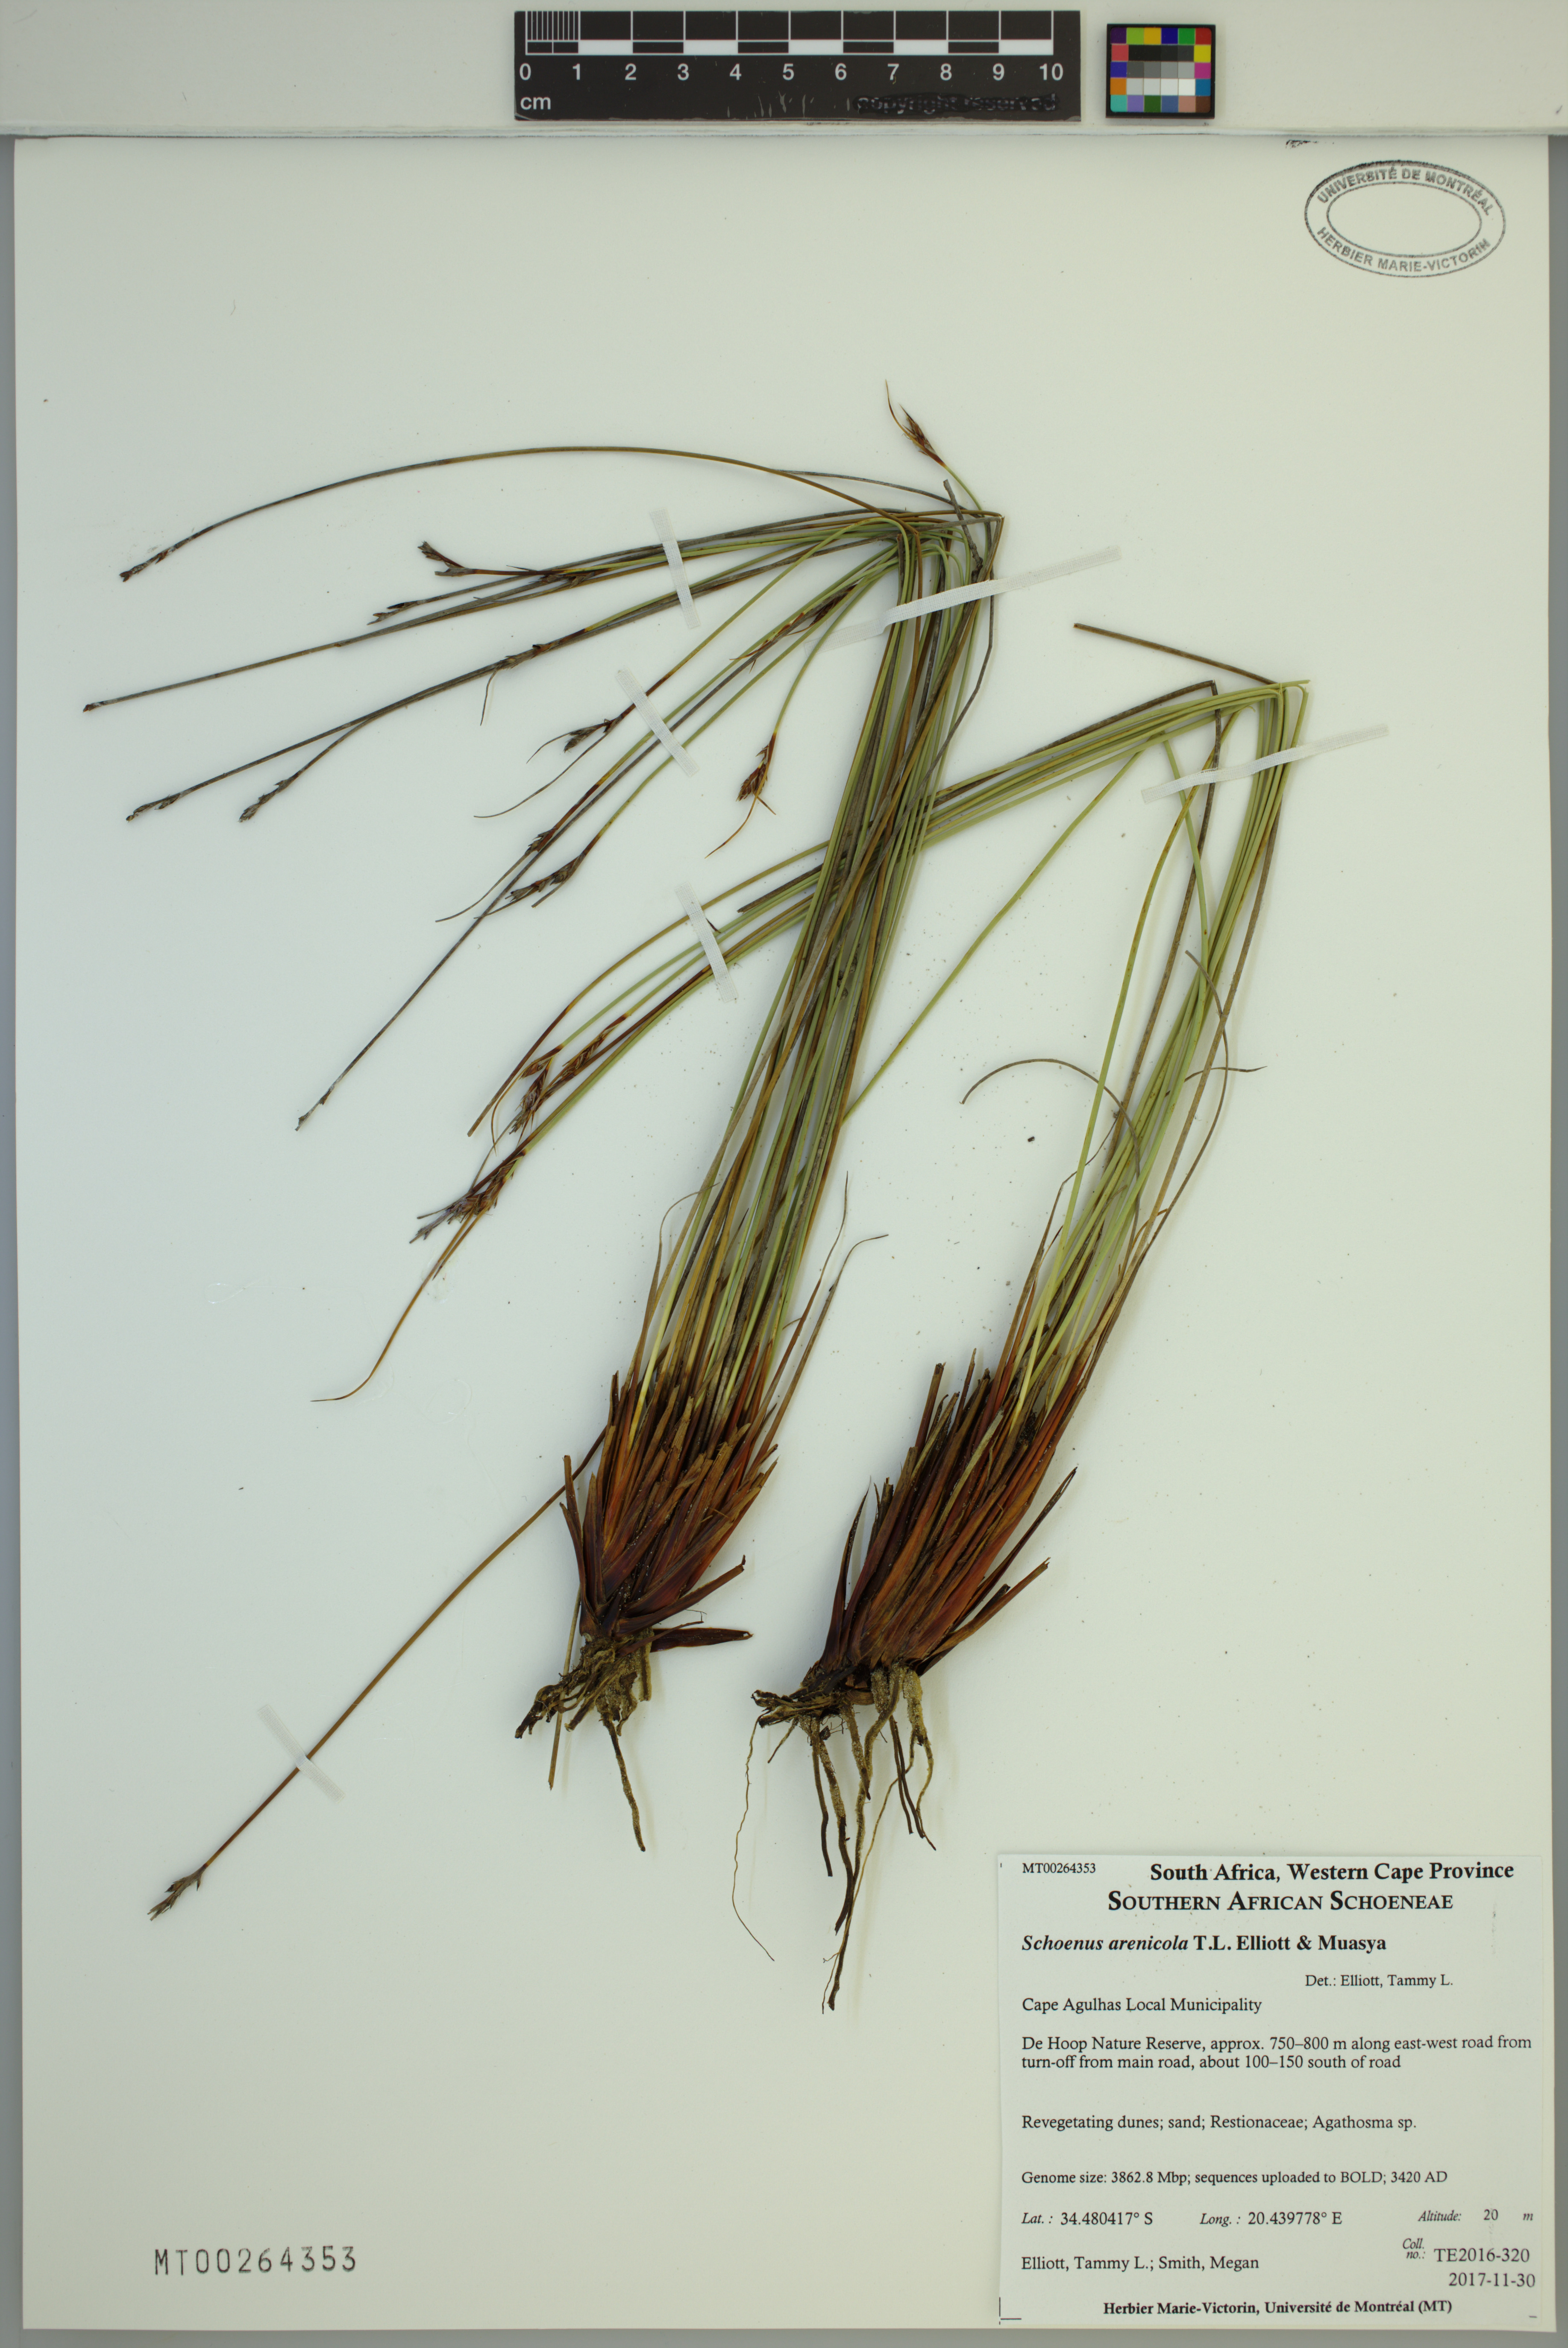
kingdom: Plantae
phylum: Tracheophyta
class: Liliopsida
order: Poales
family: Cyperaceae
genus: Schoenus
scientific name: Schoenus arenicola
